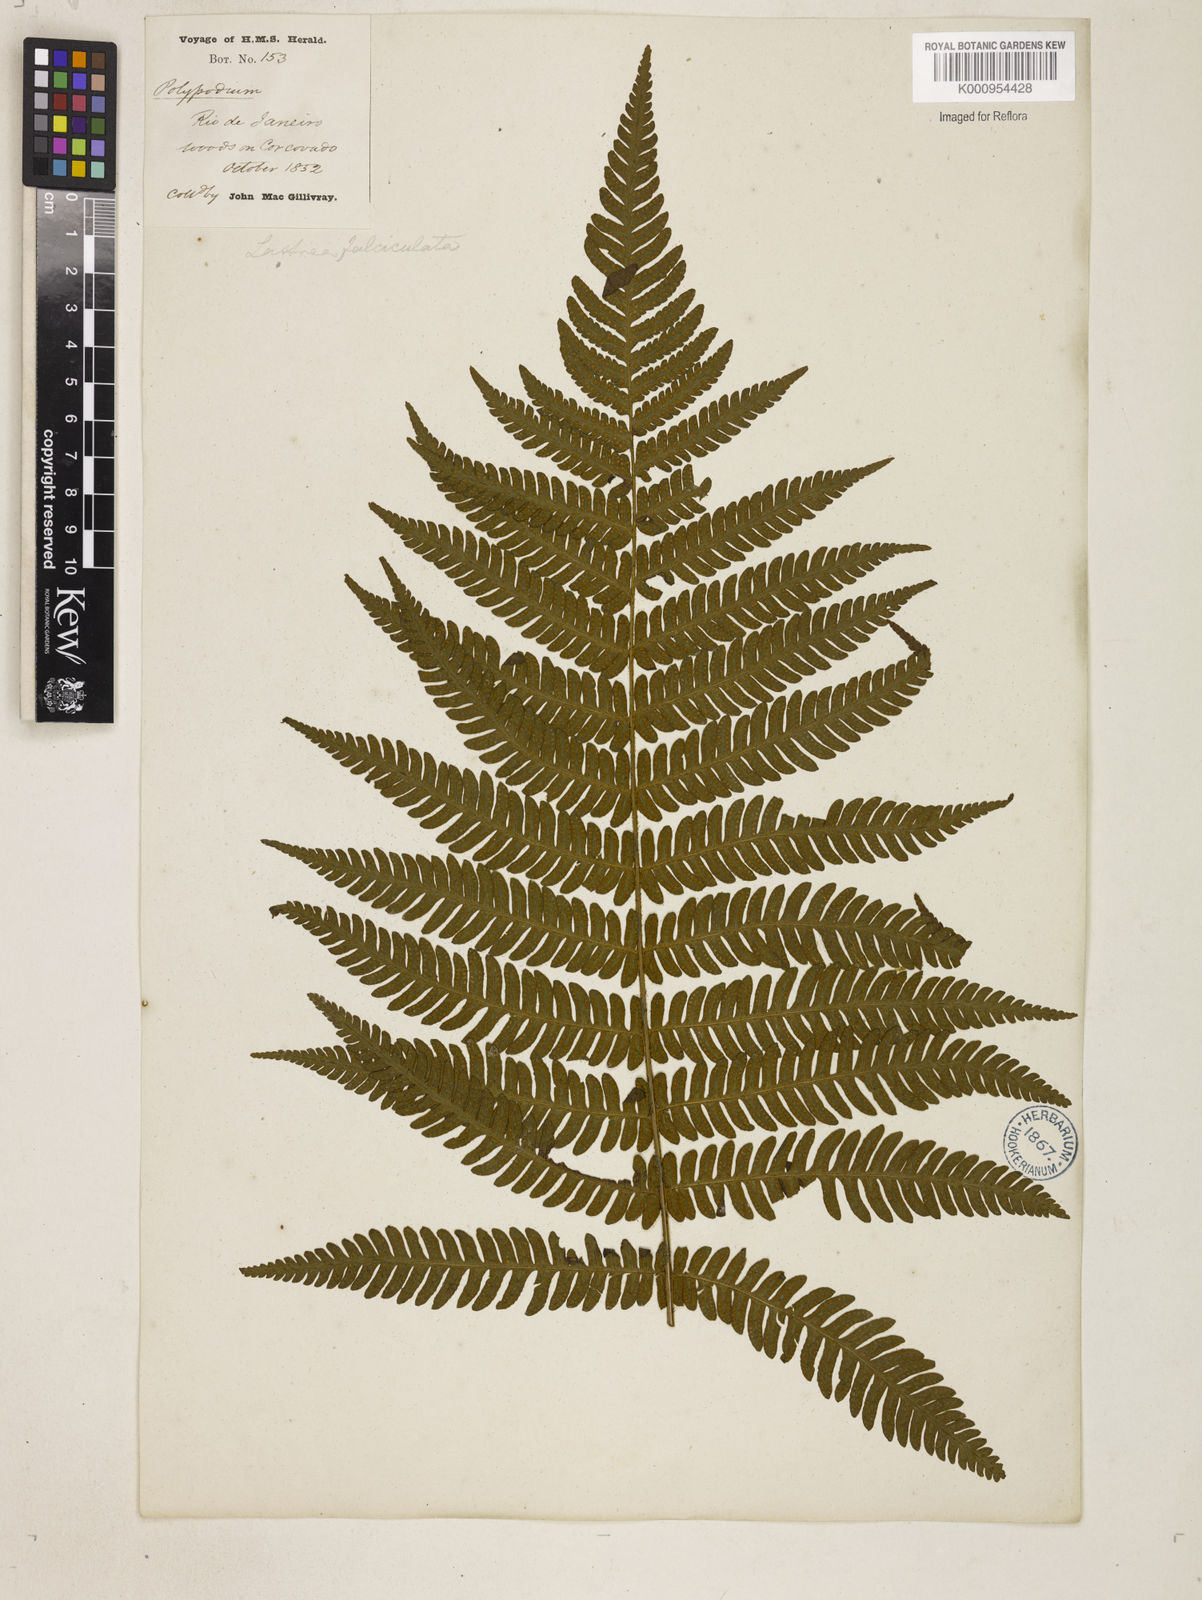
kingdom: Plantae
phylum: Tracheophyta
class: Polypodiopsida
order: Polypodiales
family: Dryopteridaceae
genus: Ctenitis
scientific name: Ctenitis falciculata
